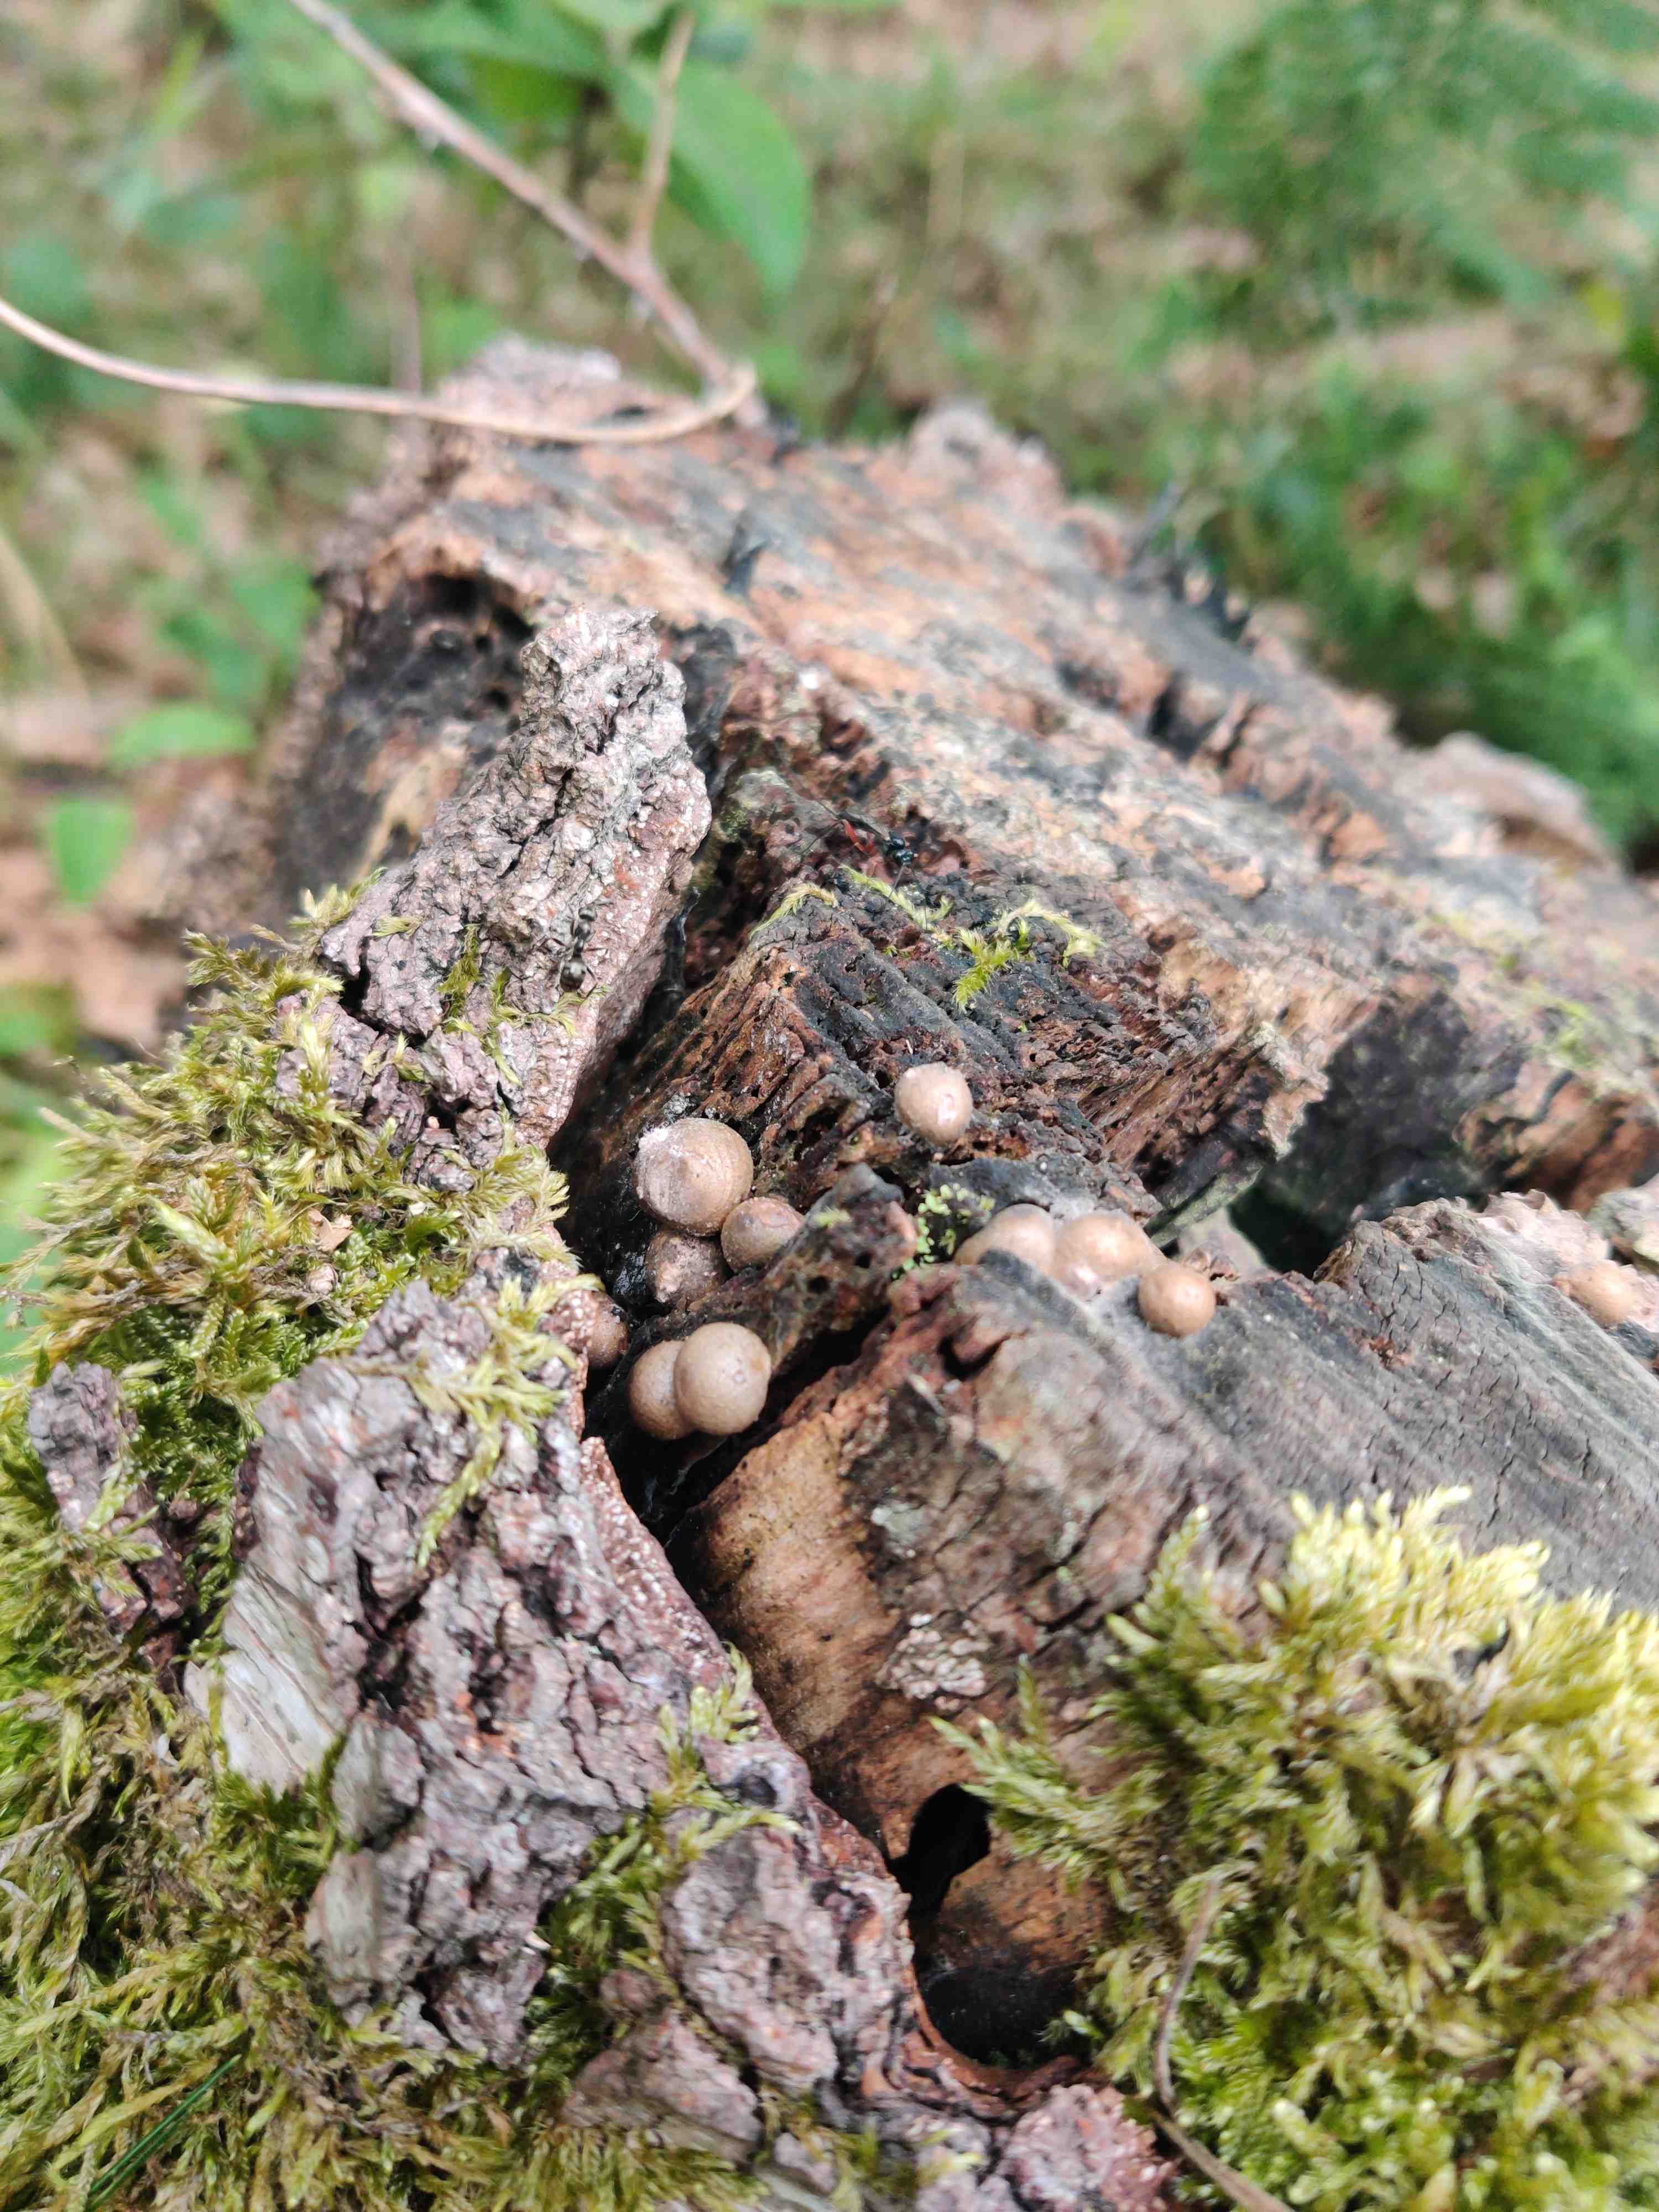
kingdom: Protozoa
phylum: Mycetozoa
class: Myxomycetes
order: Cribrariales
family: Tubiferaceae
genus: Lycogala
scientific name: Lycogala epidendrum
